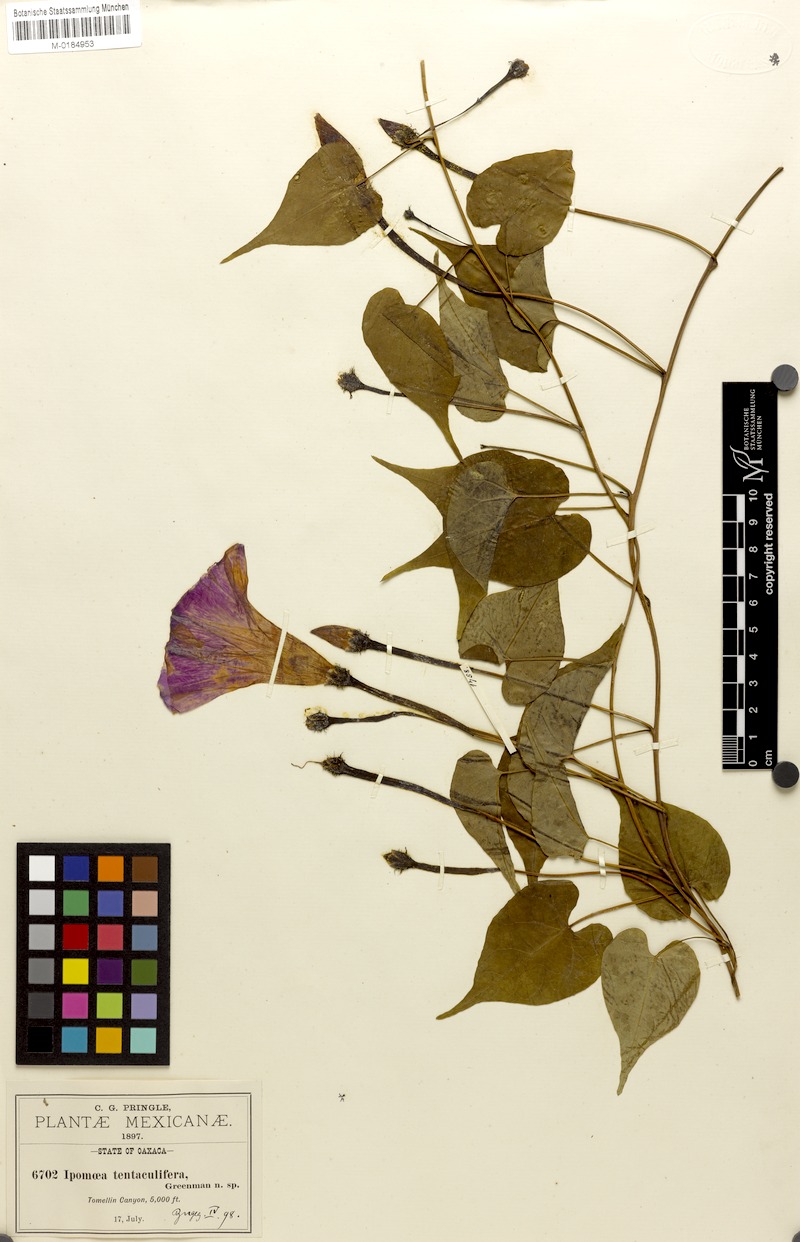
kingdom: Plantae
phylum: Tracheophyta
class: Magnoliopsida
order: Solanales
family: Convolvulaceae
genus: Ipomoea
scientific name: Ipomoea tentaculifera
